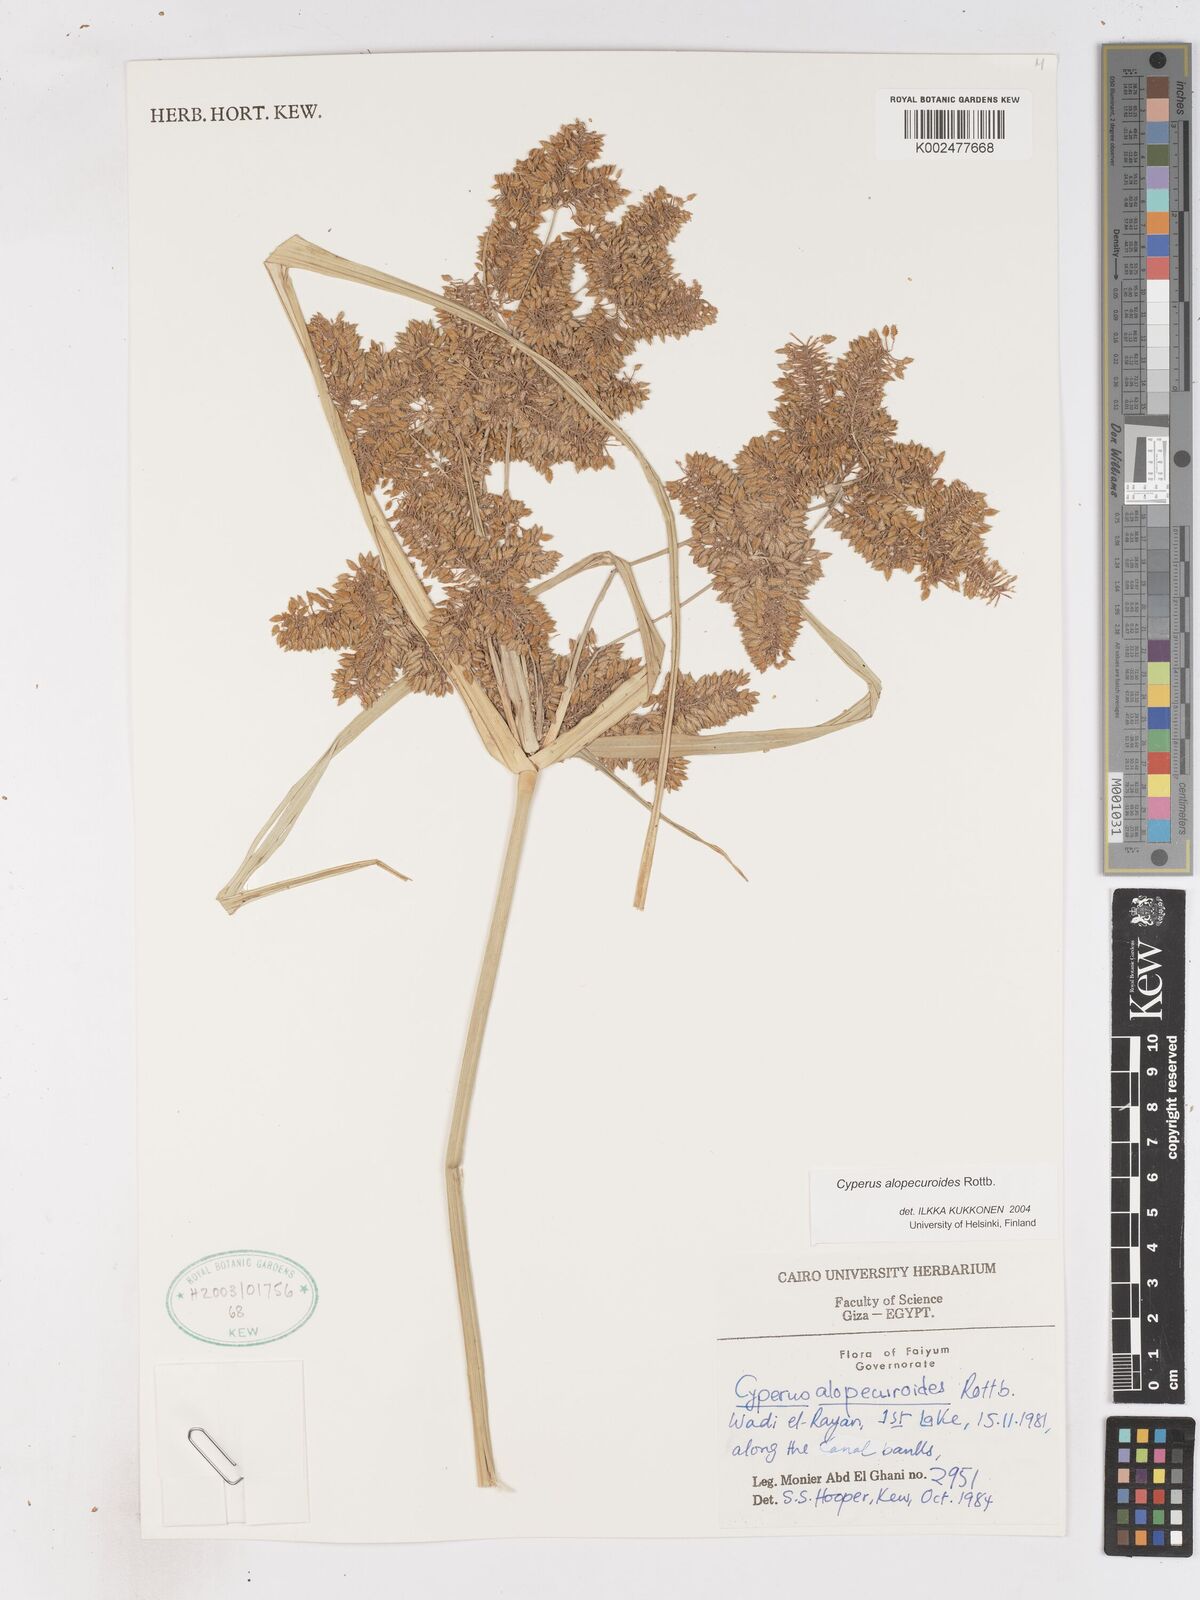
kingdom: Plantae
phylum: Tracheophyta
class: Liliopsida
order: Poales
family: Cyperaceae
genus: Cyperus
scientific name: Cyperus alopecuroides
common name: Foxtail flatsedge
